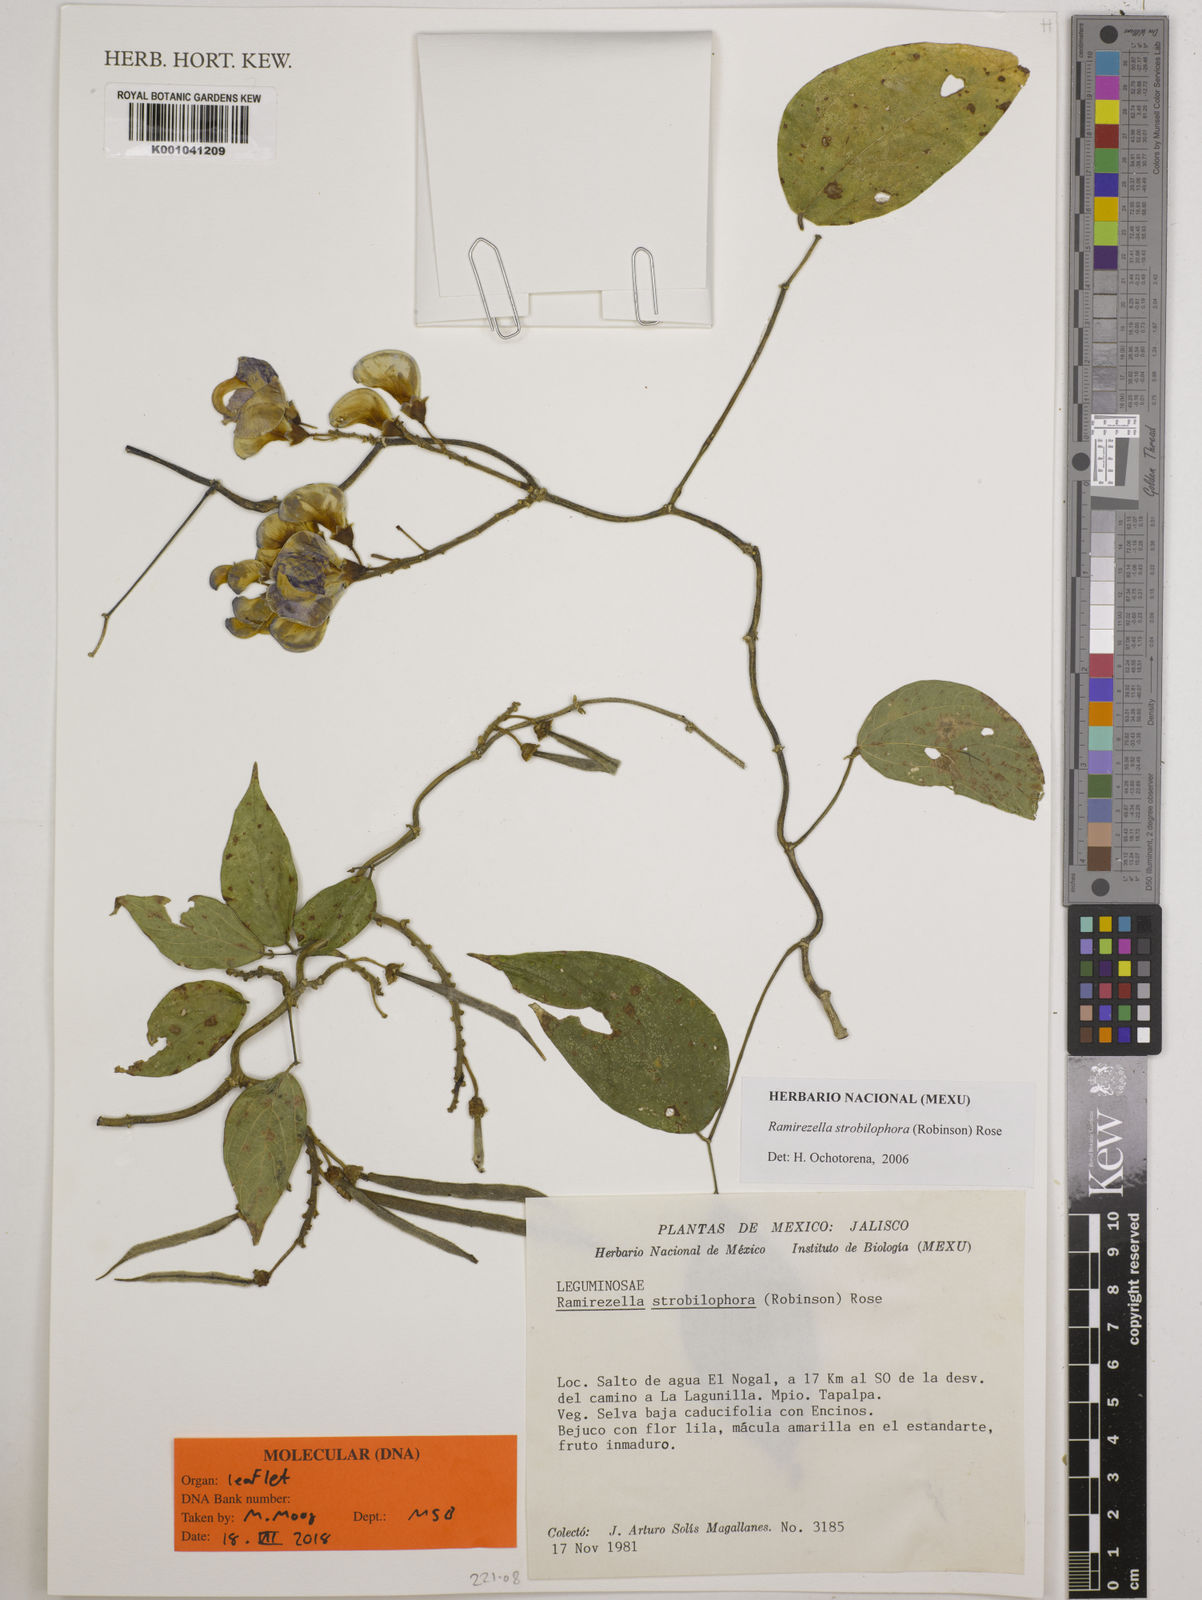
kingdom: Plantae
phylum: Tracheophyta
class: Magnoliopsida
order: Fabales
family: Fabaceae
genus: Ramirezella
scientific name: Ramirezella strobilophora
